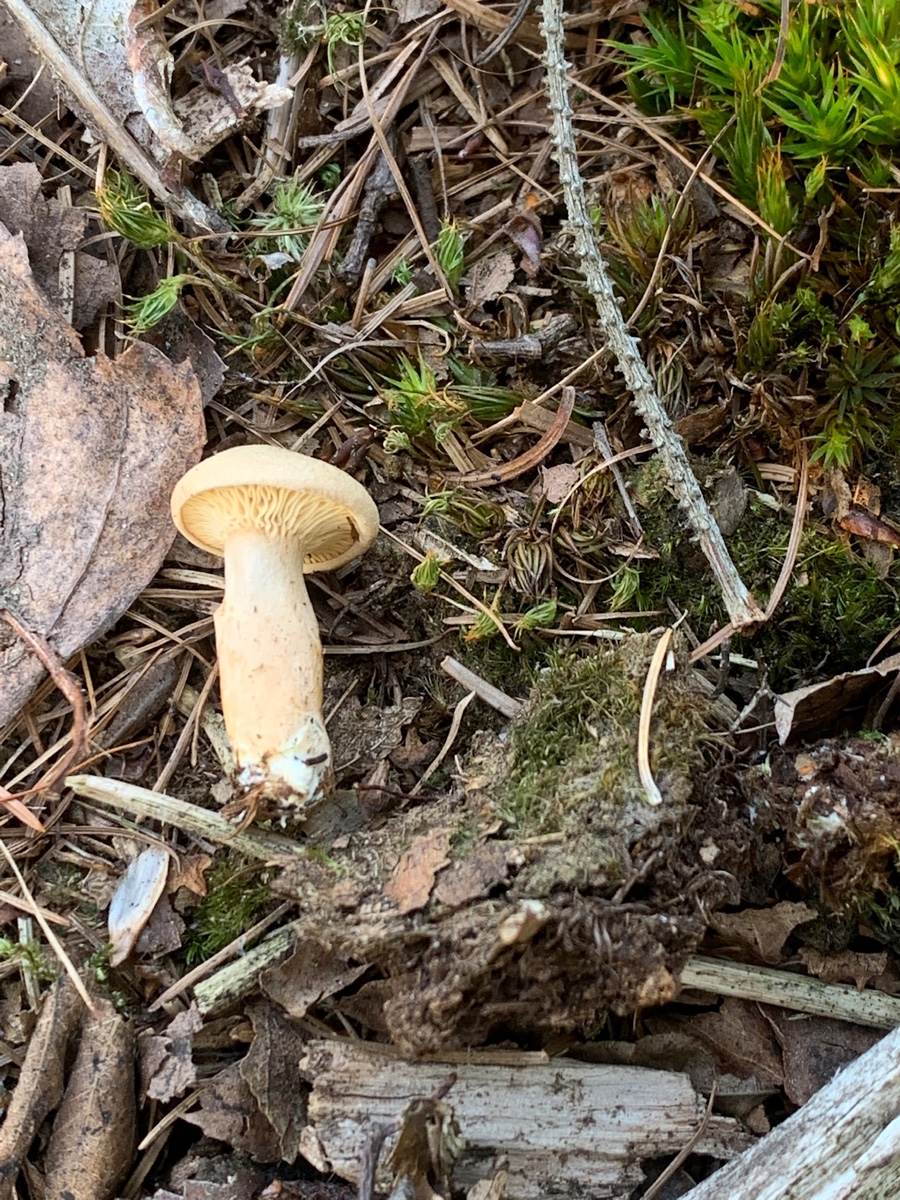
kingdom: Fungi
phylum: Basidiomycota
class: Agaricomycetes
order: Russulales
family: Russulaceae
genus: Lactarius
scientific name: Lactarius helvus
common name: mose-mælkehat
